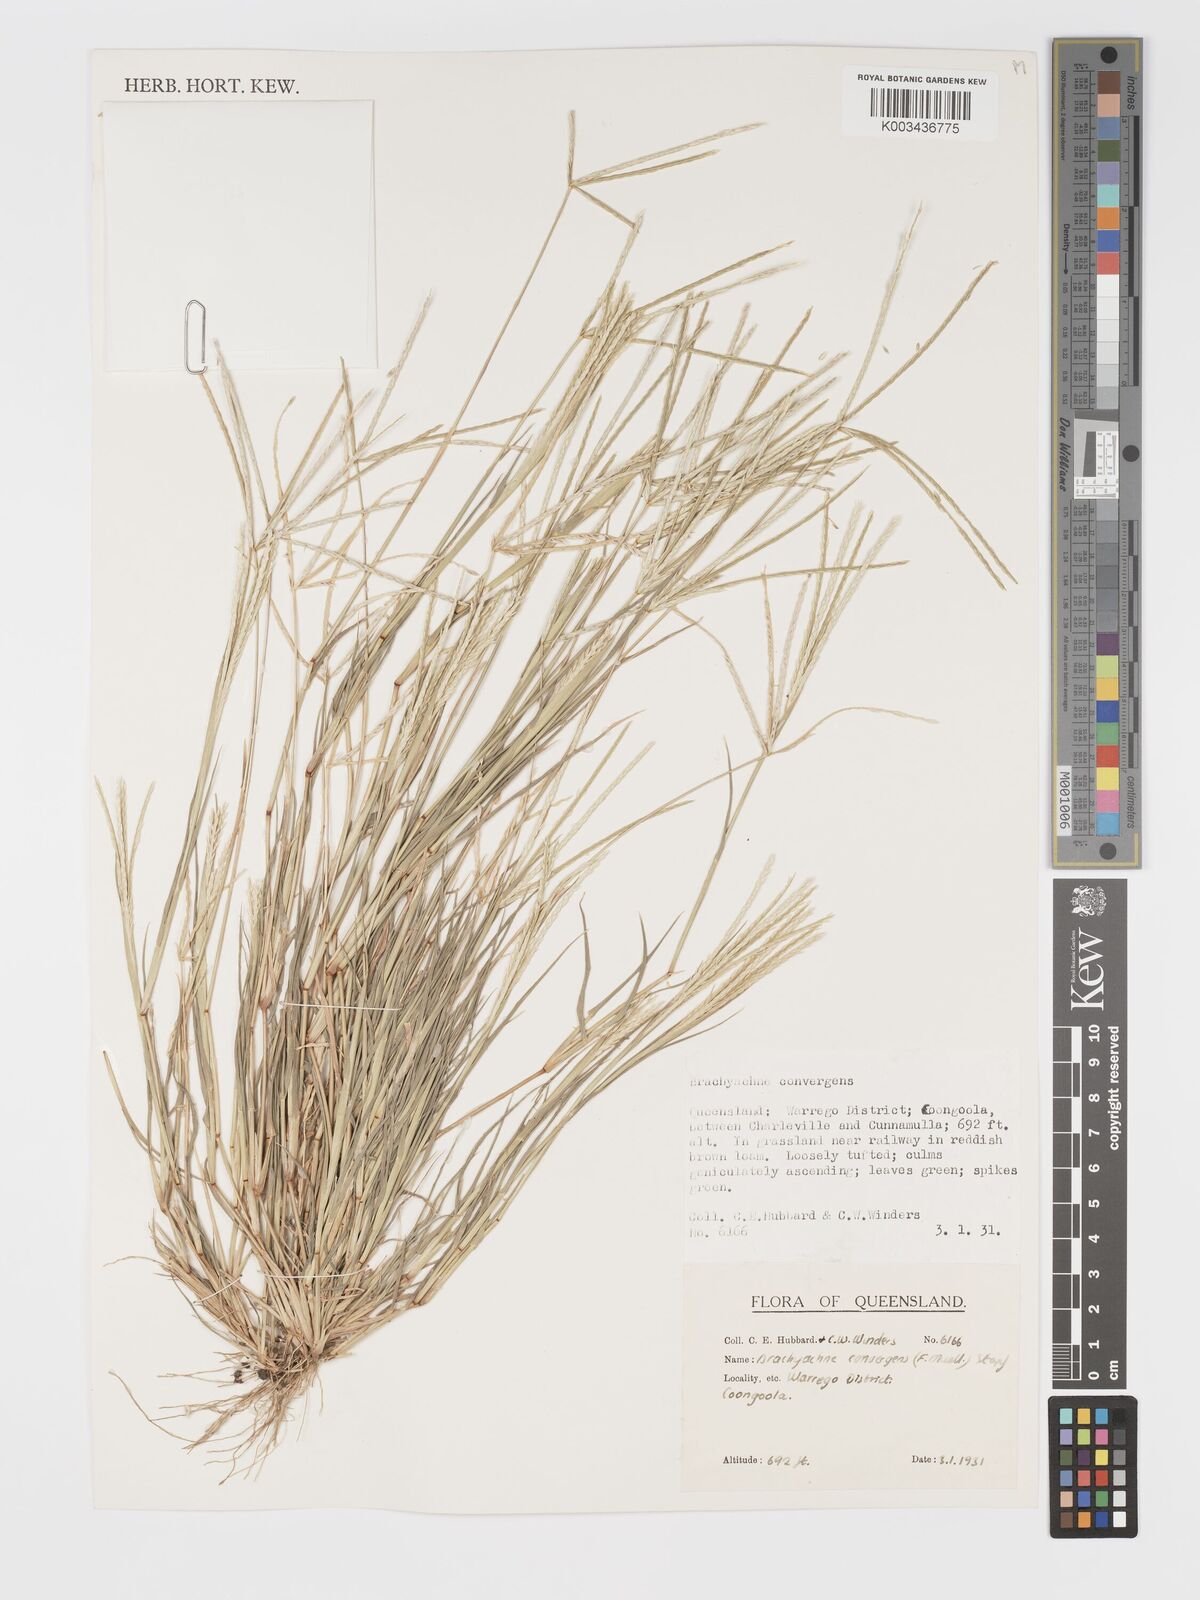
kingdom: Plantae
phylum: Tracheophyta
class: Liliopsida
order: Poales
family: Poaceae
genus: Cynodon
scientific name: Cynodon convergens
